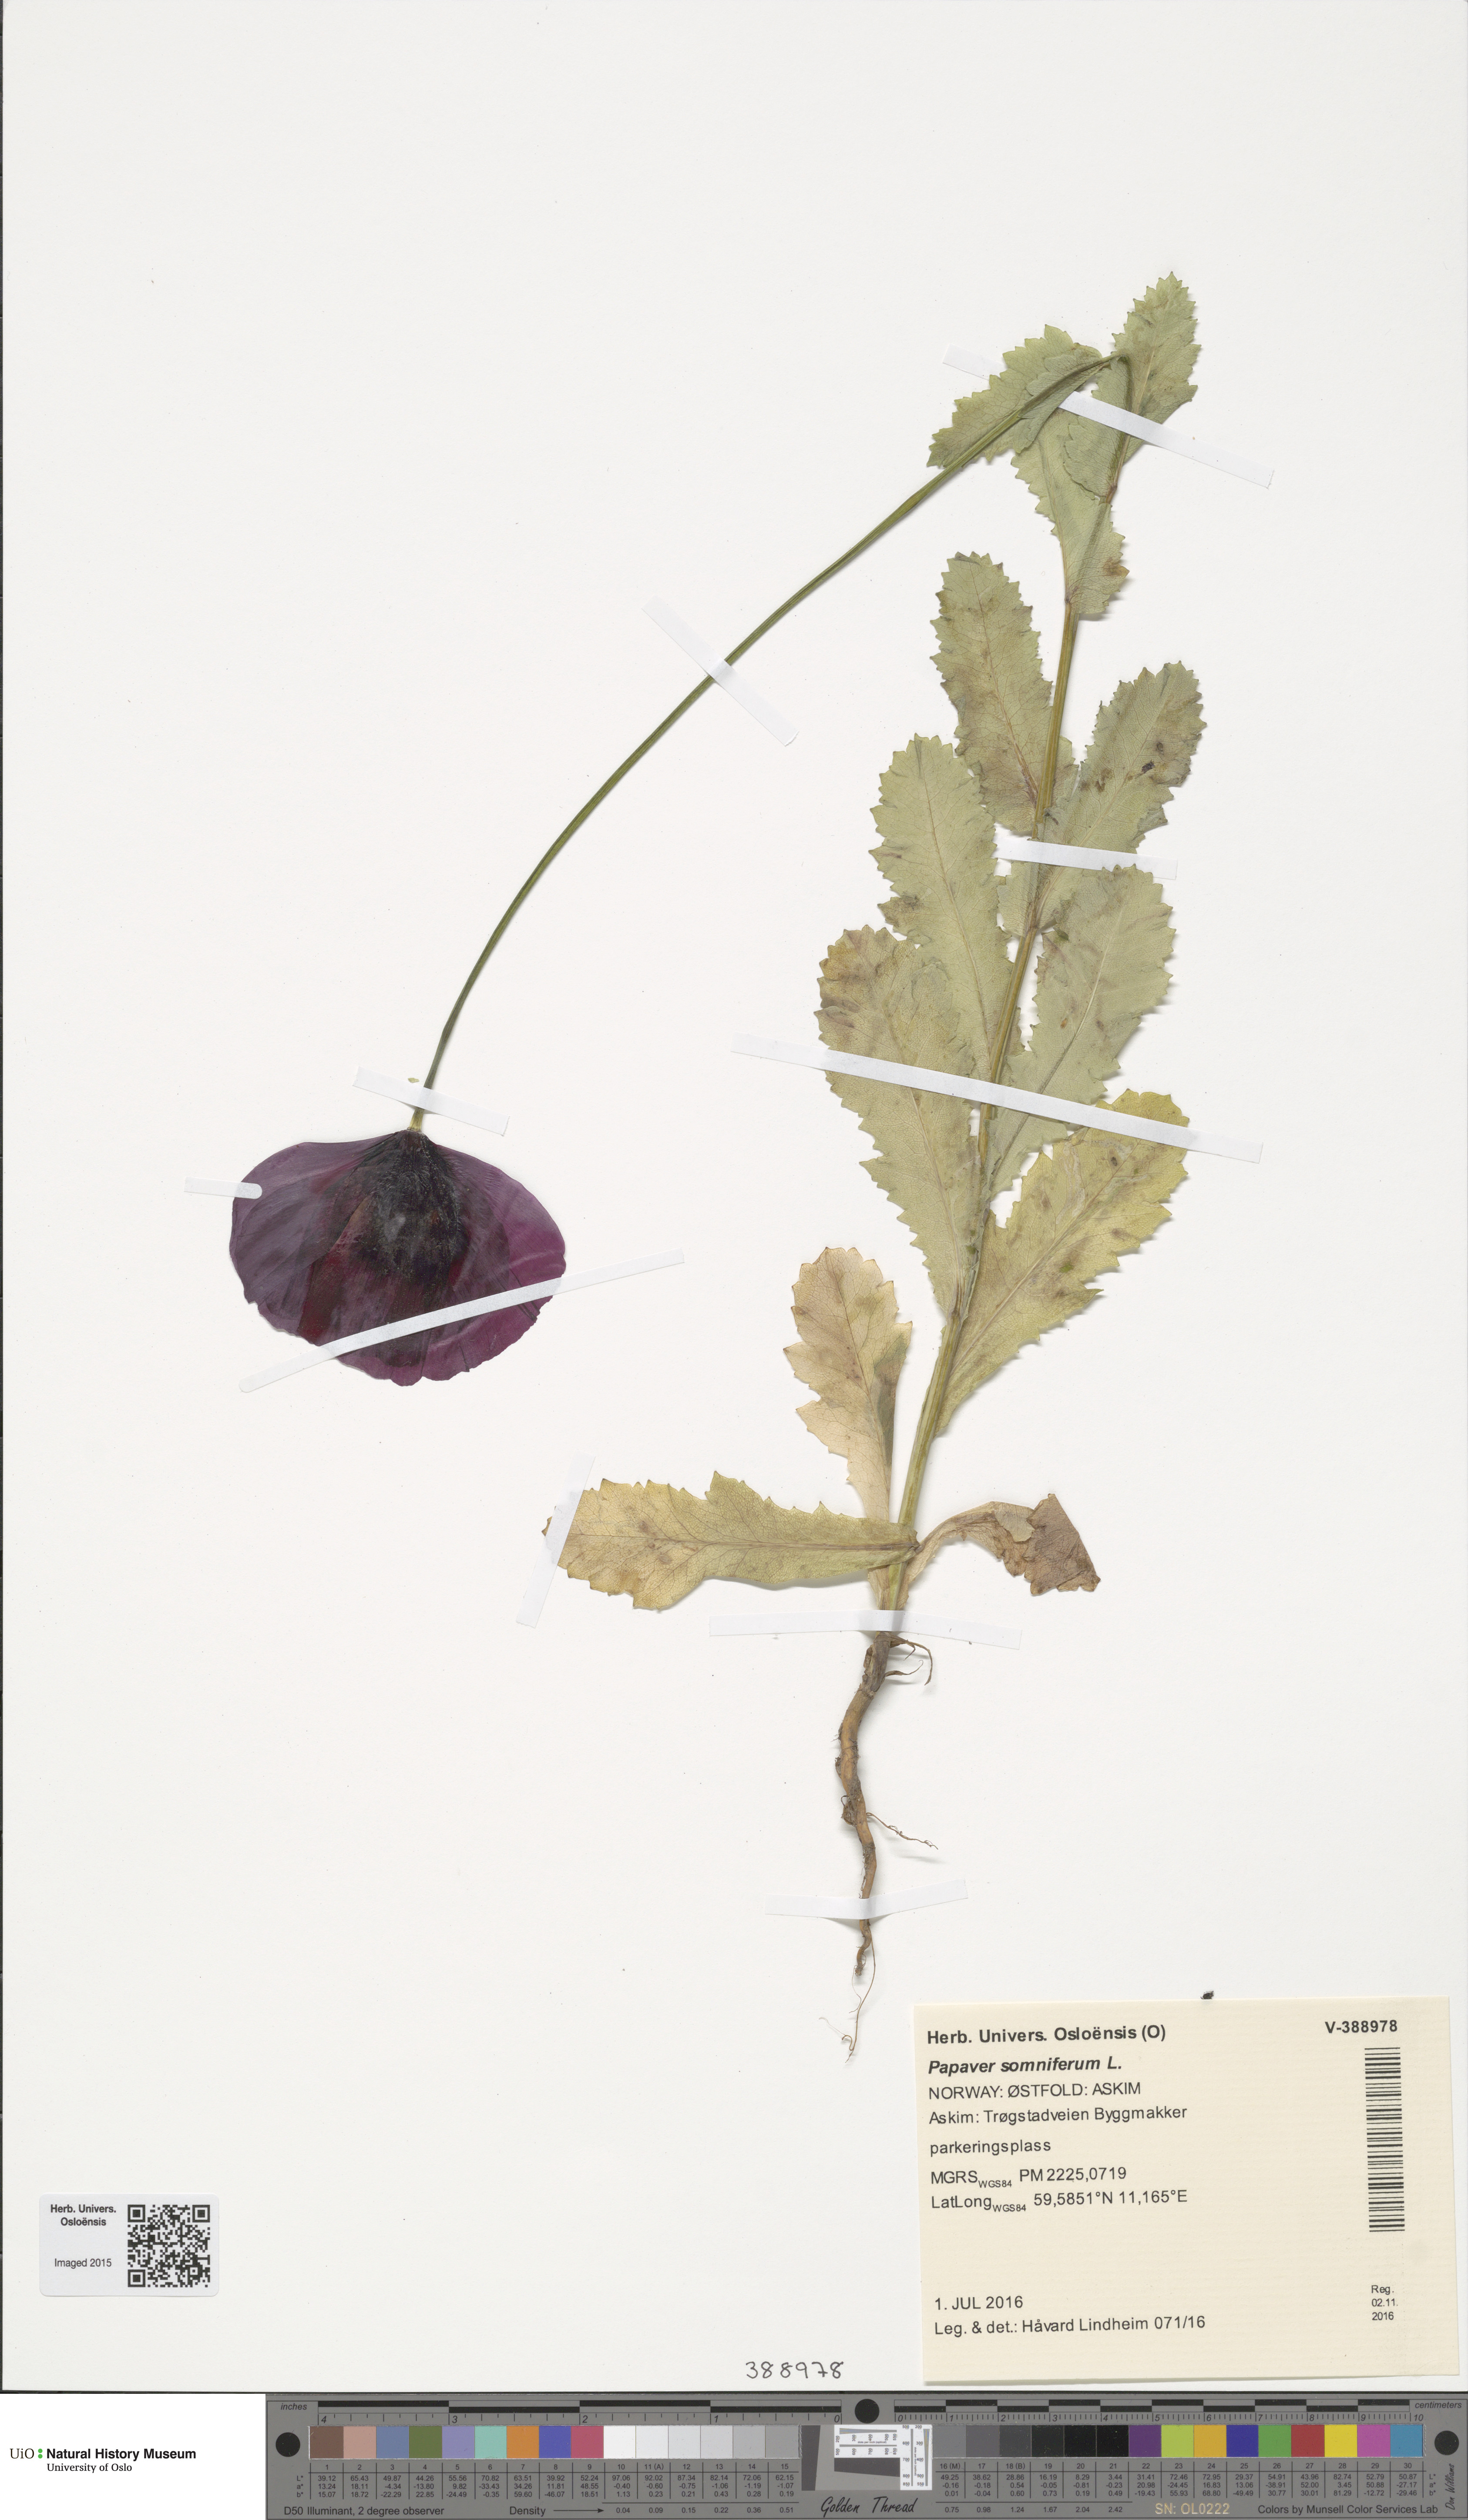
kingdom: Plantae
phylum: Tracheophyta
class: Magnoliopsida
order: Ranunculales
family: Papaveraceae
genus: Papaver
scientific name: Papaver somniferum
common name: Opium poppy
